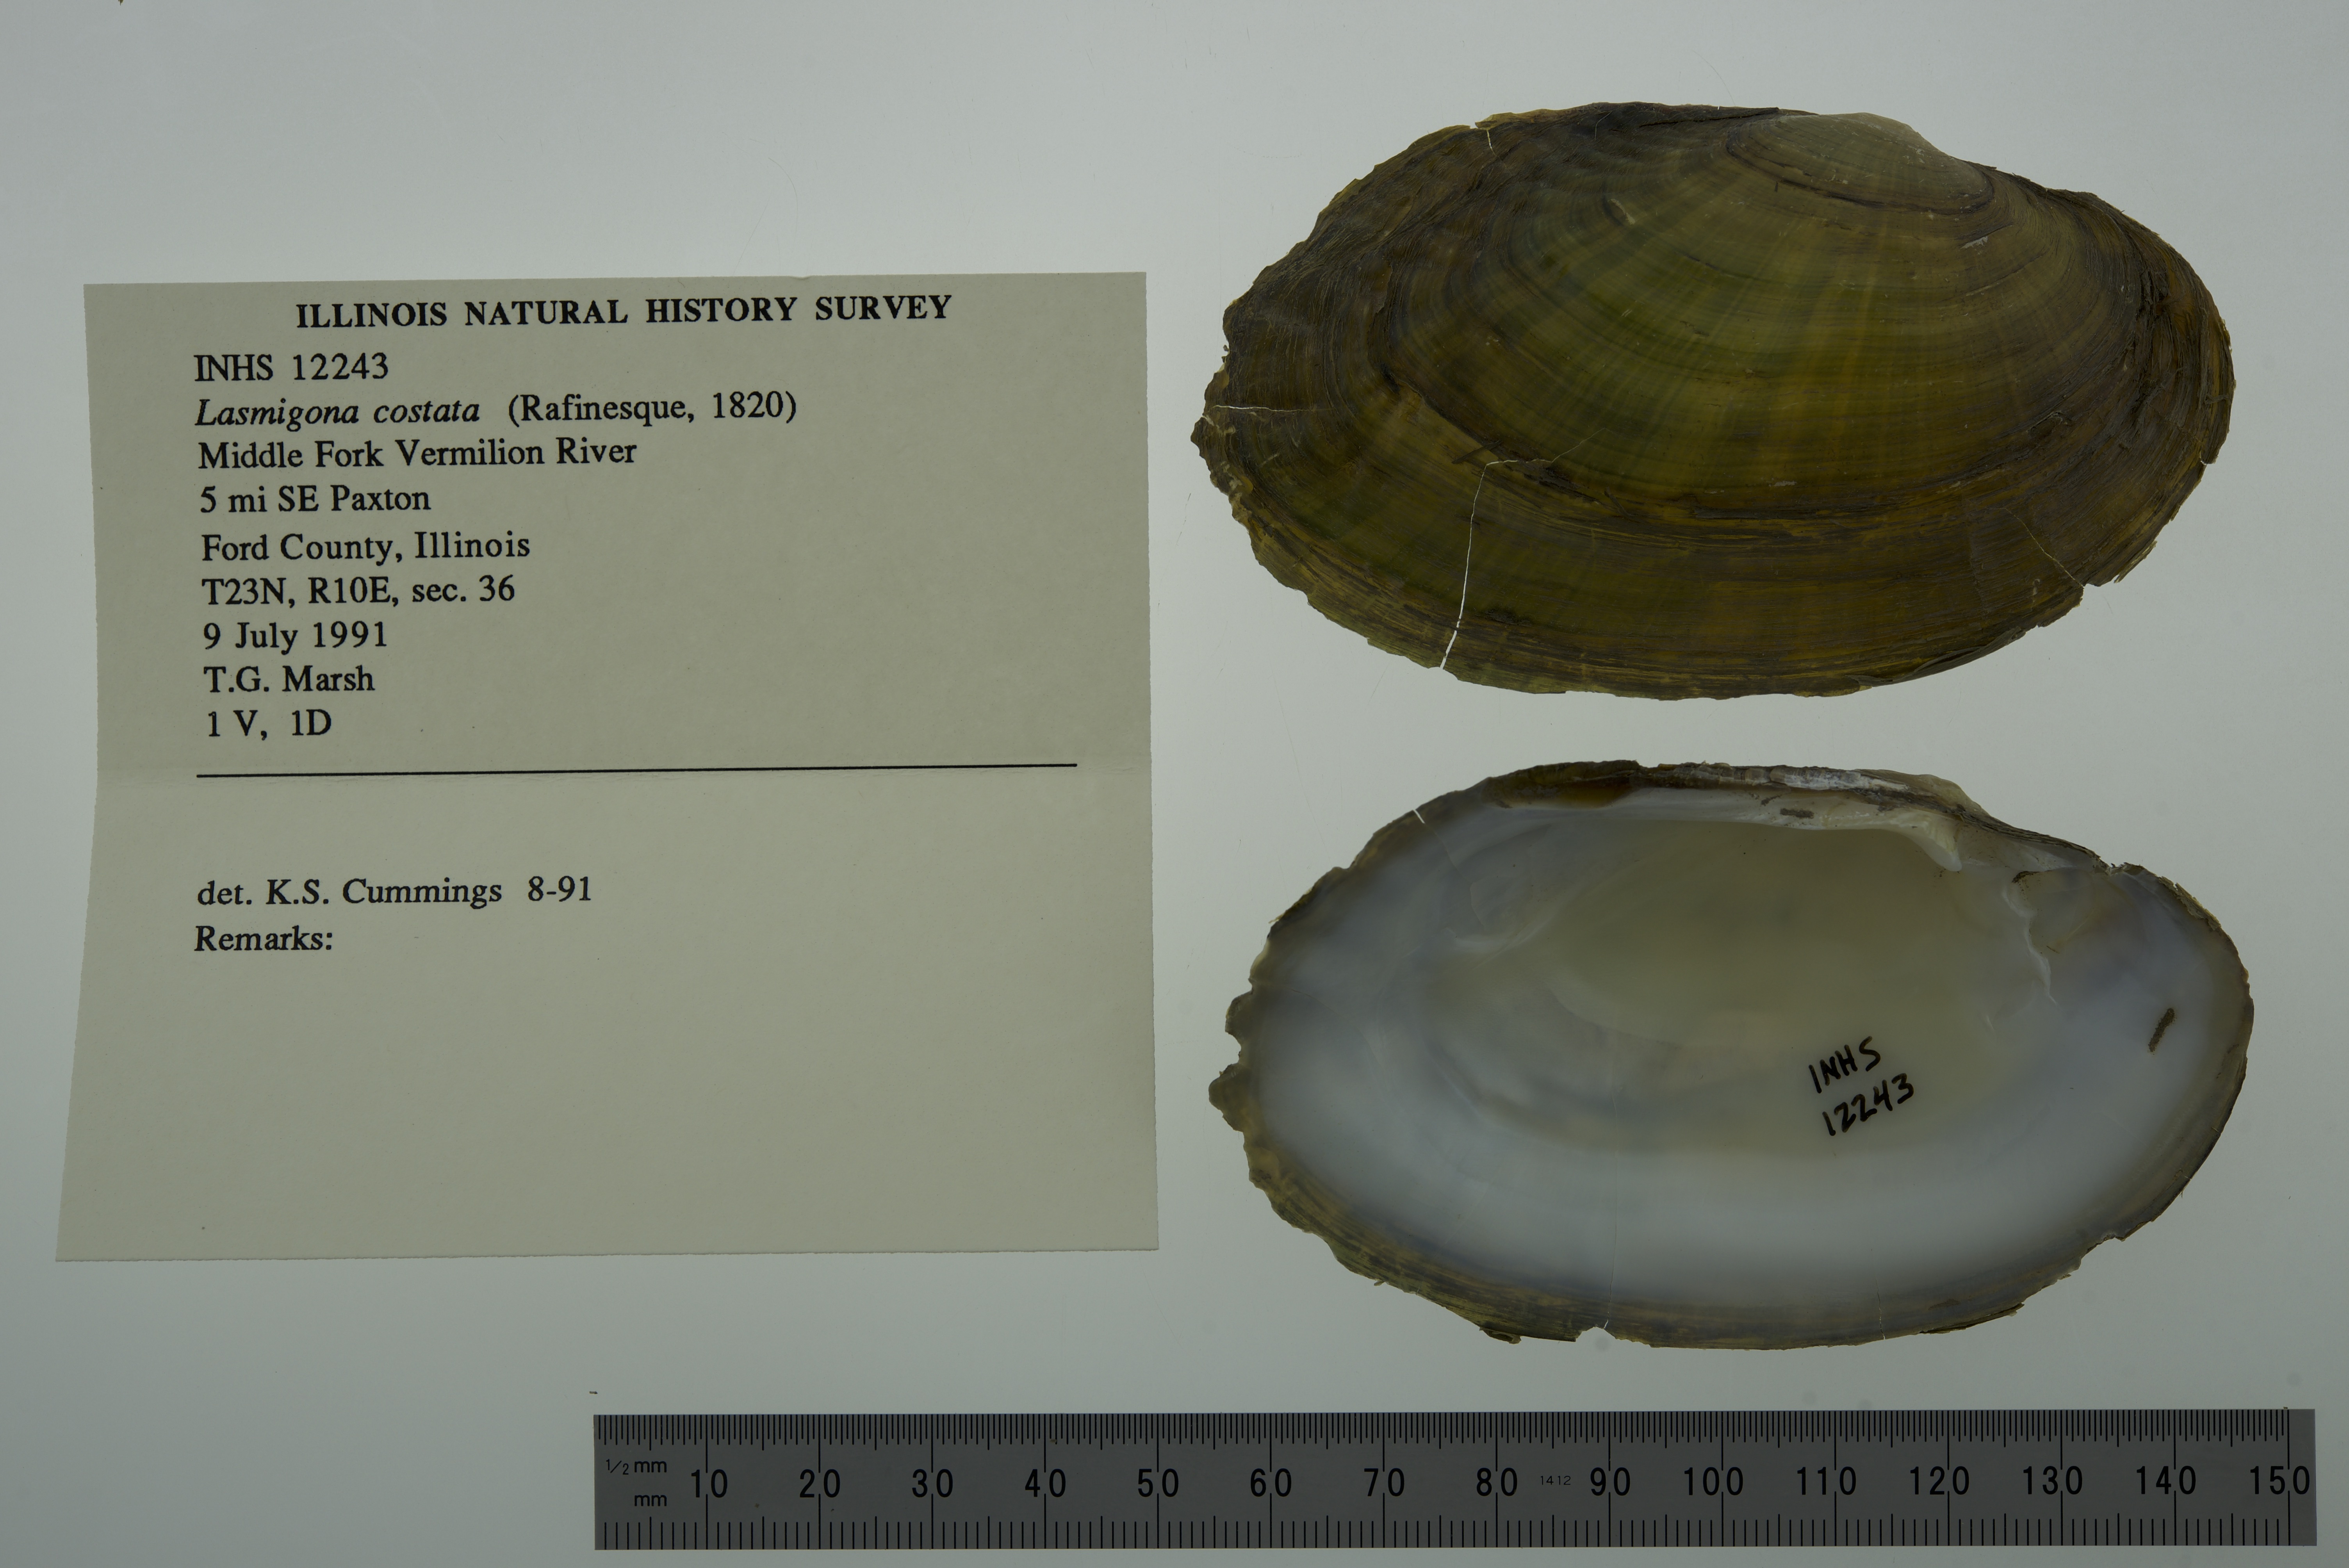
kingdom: Animalia
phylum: Mollusca
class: Bivalvia
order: Unionida
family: Unionidae
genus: Lasmigona
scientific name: Lasmigona costata
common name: Flutedshell
